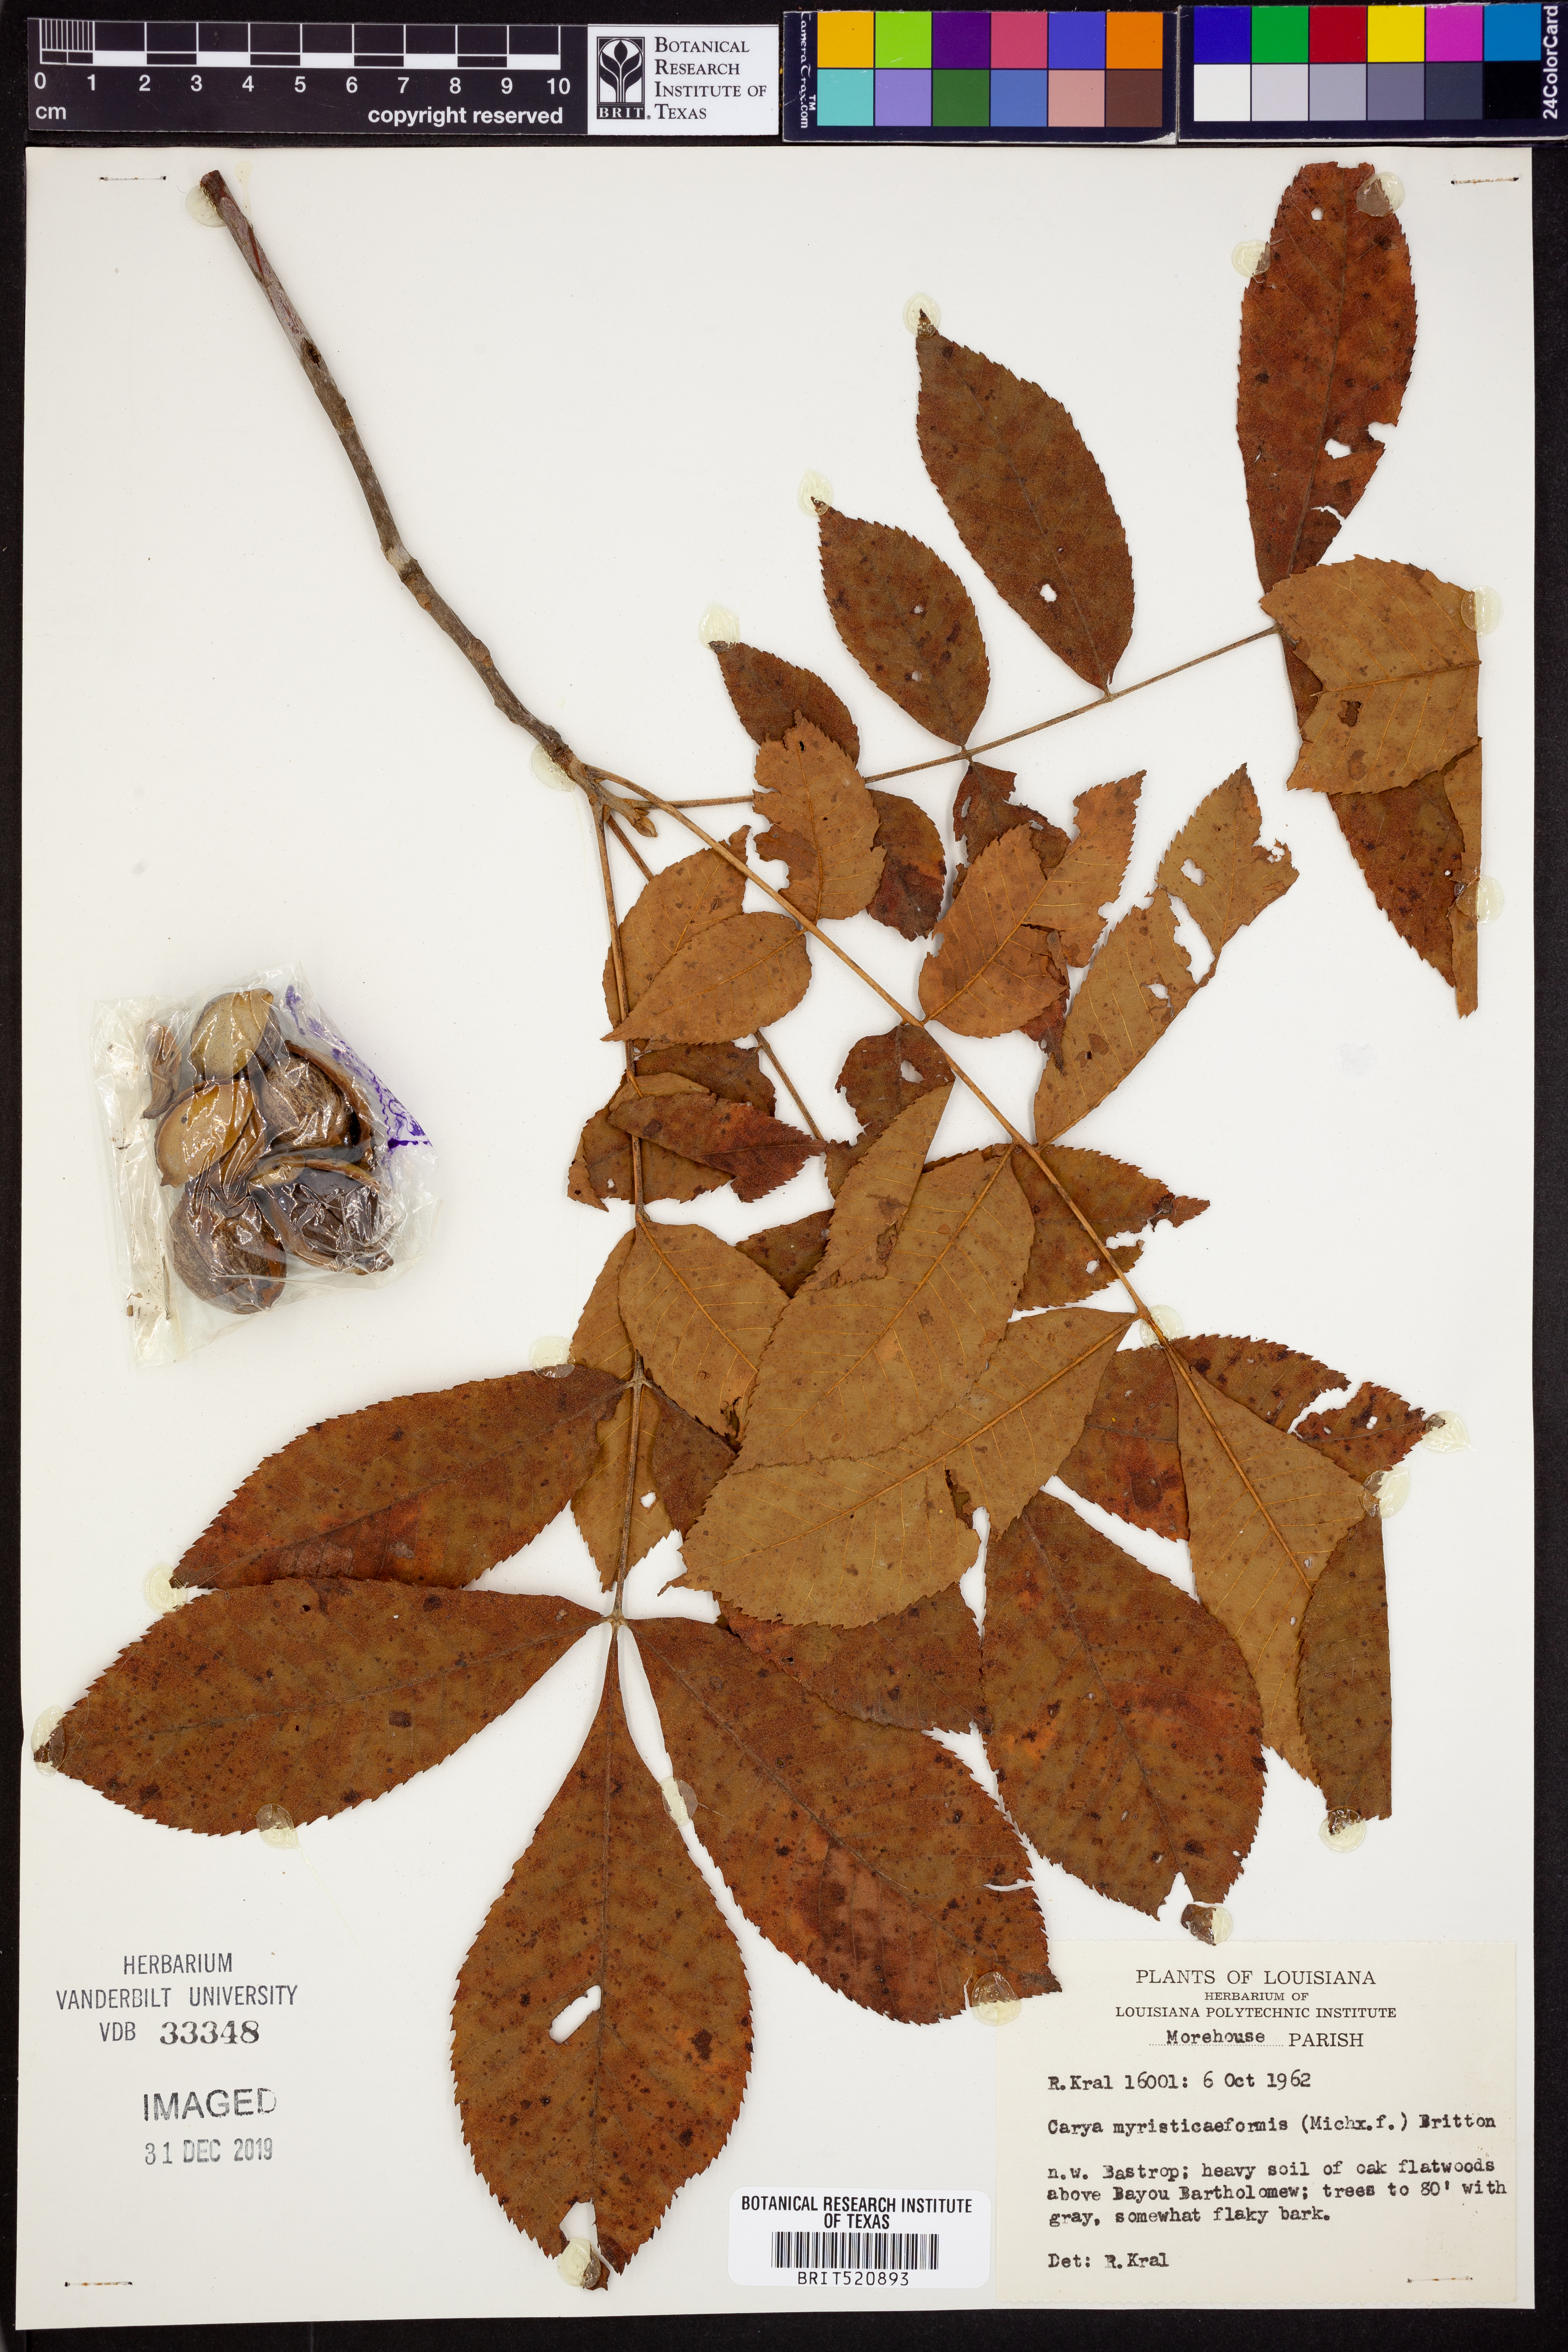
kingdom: Plantae
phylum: Tracheophyta
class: Magnoliopsida
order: Fagales
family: Juglandaceae
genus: Carya
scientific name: Carya myristiciformis
